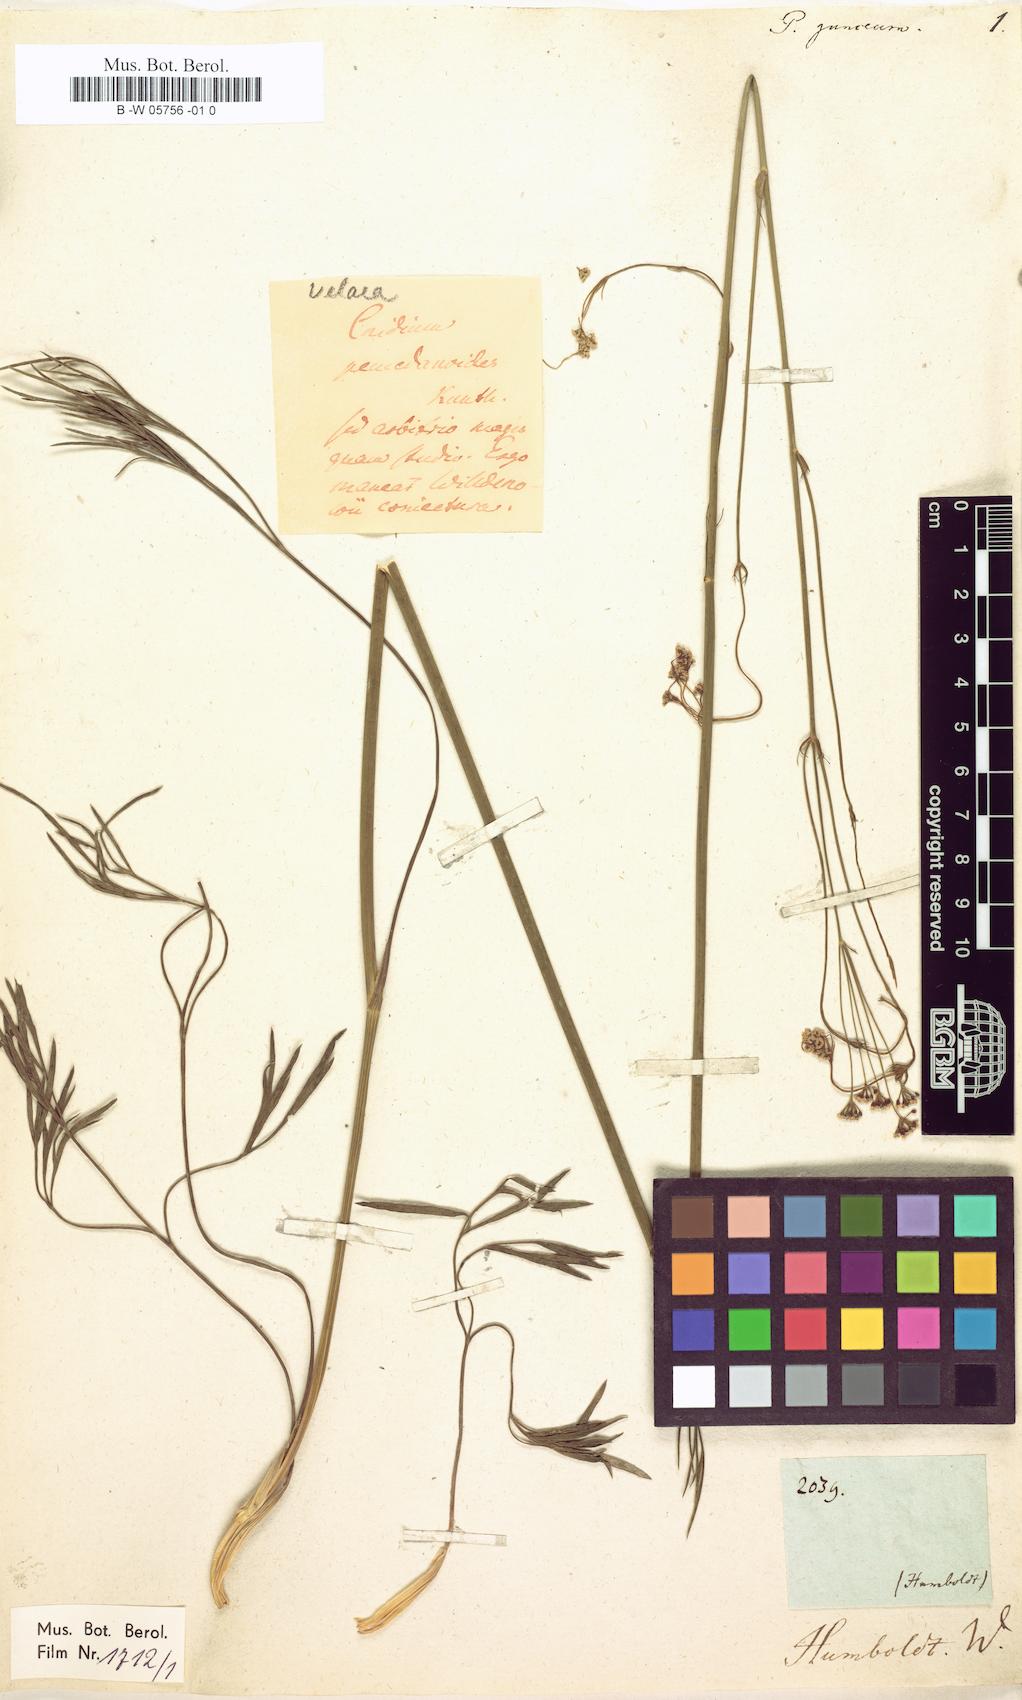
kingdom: Plantae
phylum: Tracheophyta
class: Magnoliopsida
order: Apiales
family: Apiaceae
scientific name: Apiaceae
